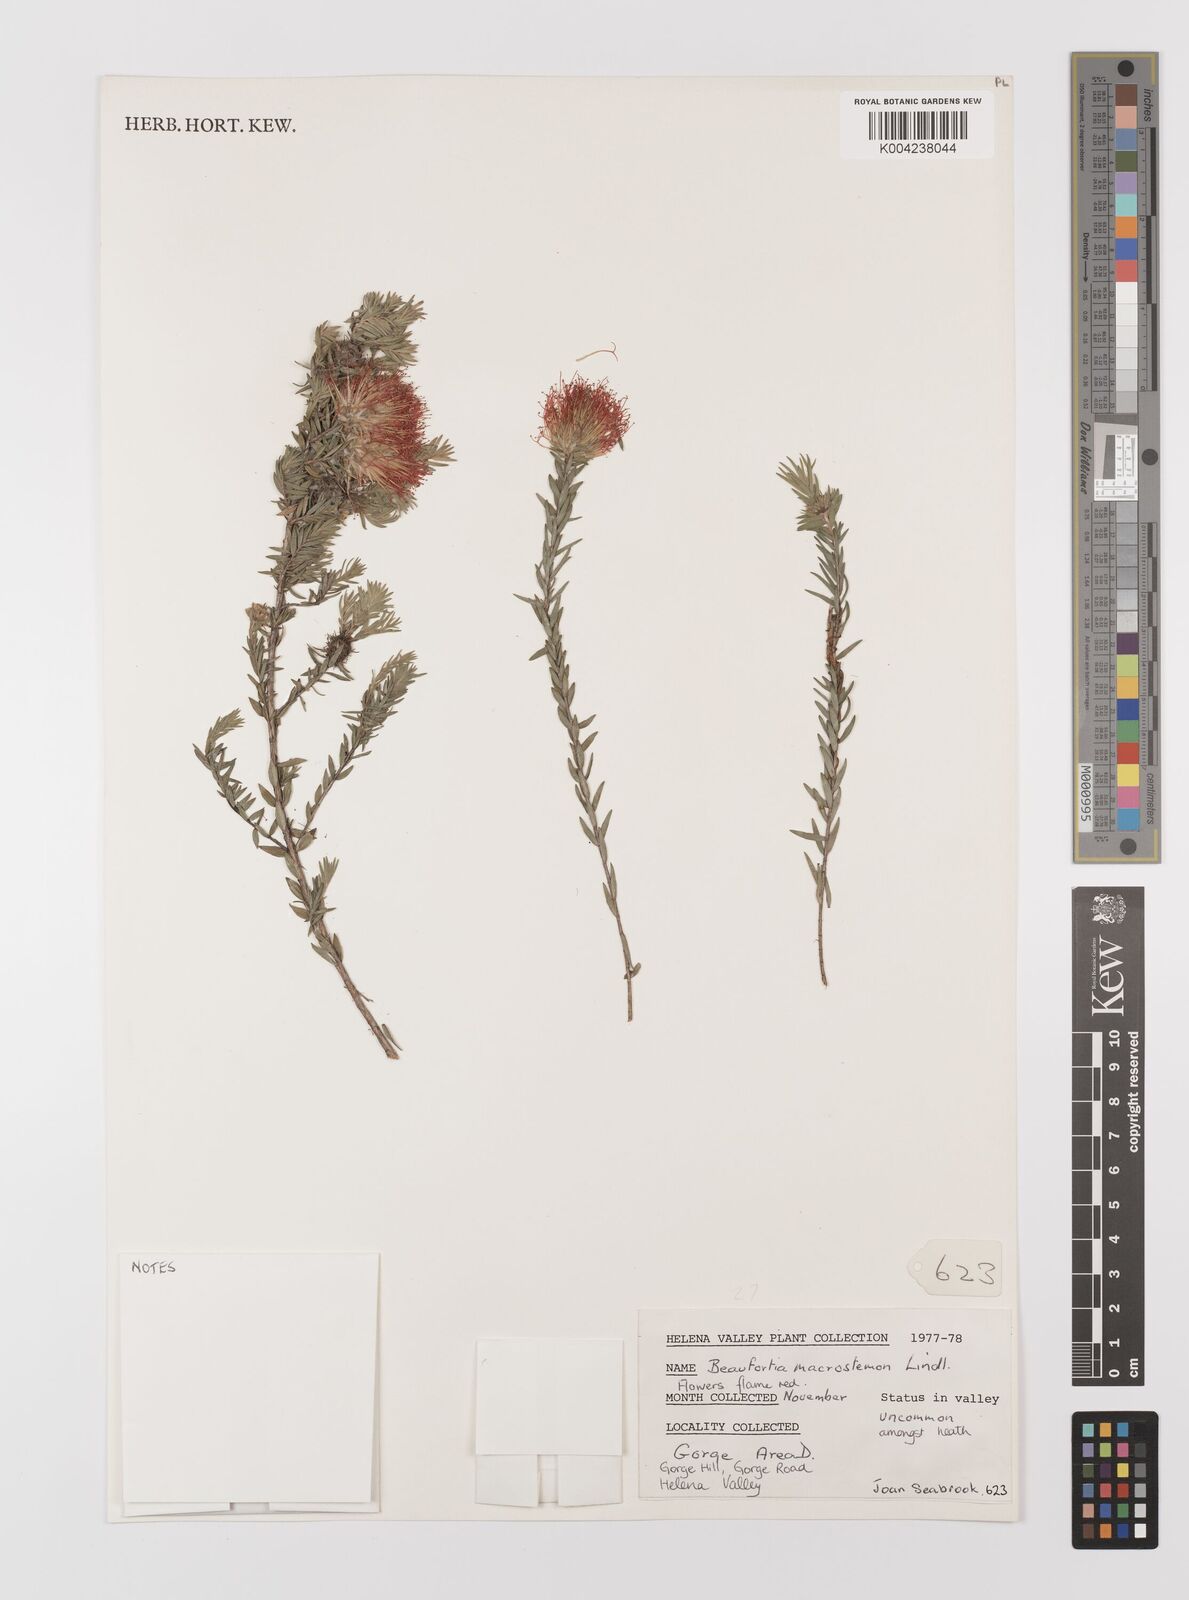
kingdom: Plantae
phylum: Tracheophyta
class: Magnoliopsida
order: Myrtales
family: Myrtaceae
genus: Melaleuca
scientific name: Melaleuca macrostemon
